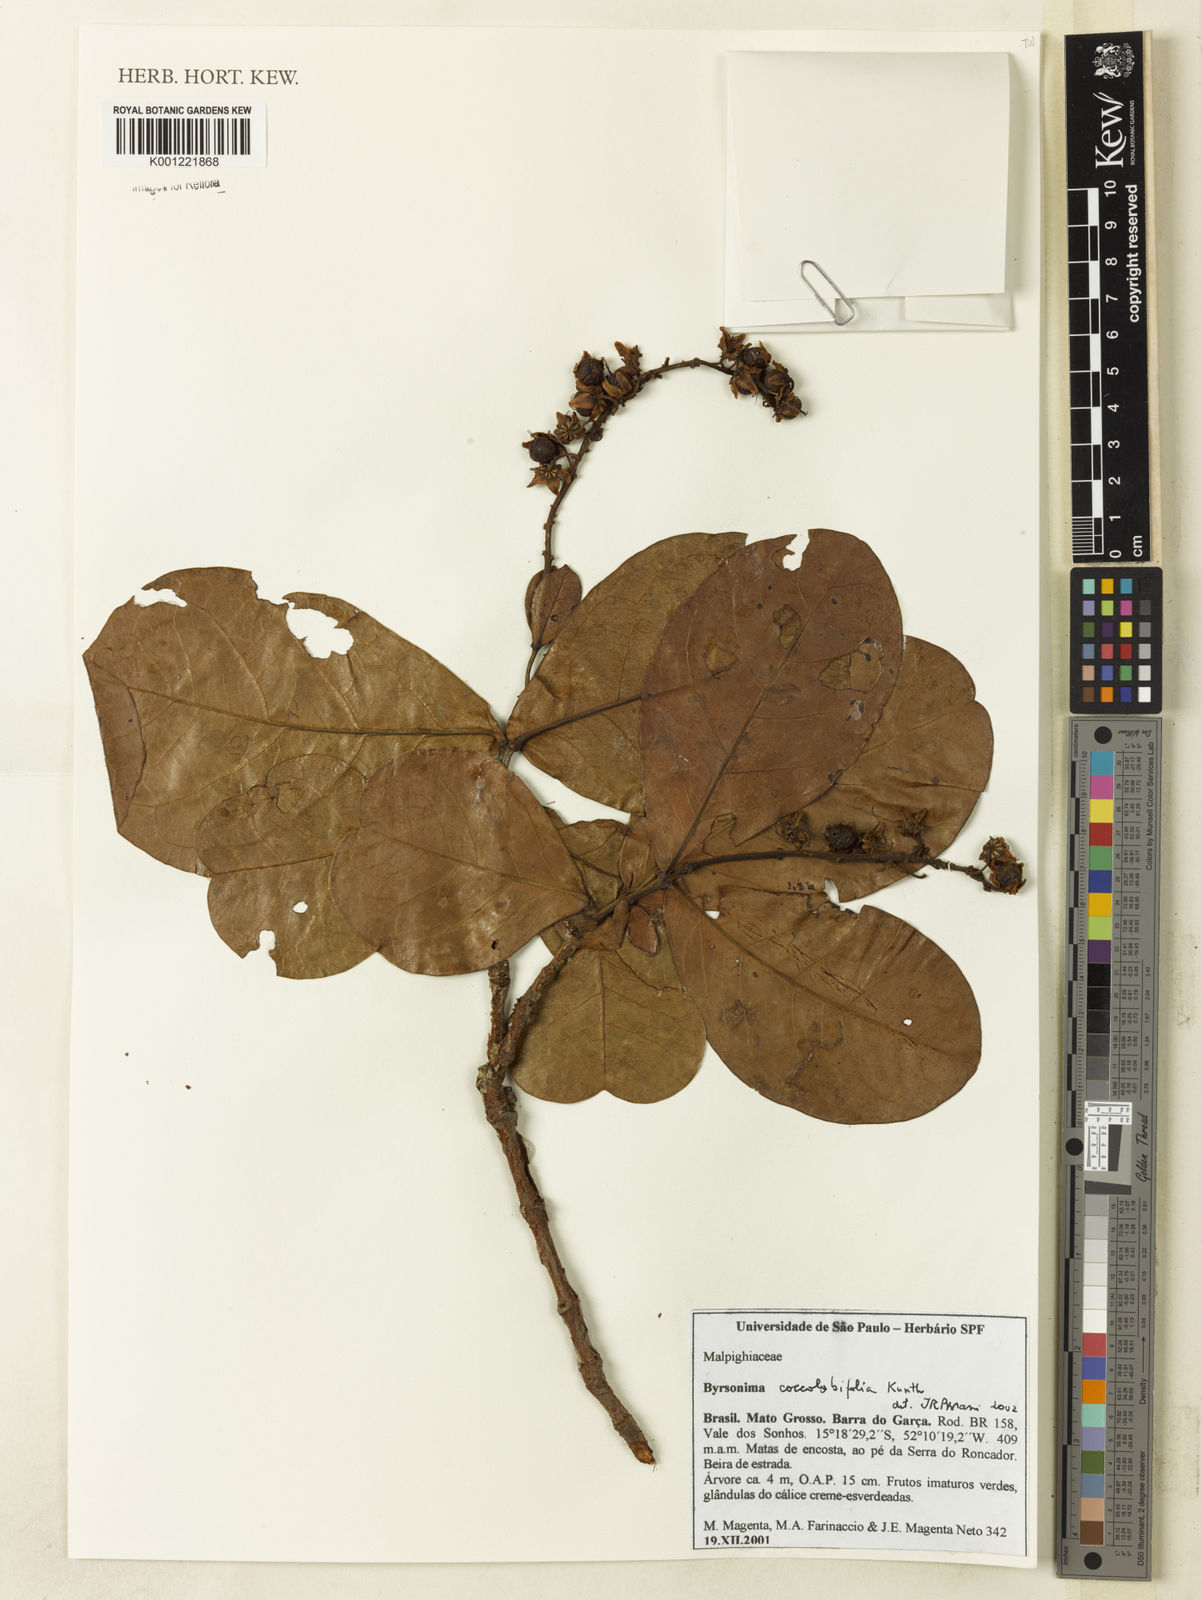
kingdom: Plantae
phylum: Tracheophyta
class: Magnoliopsida
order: Malpighiales
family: Malpighiaceae
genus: Byrsonima
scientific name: Byrsonima coccolobifolia
